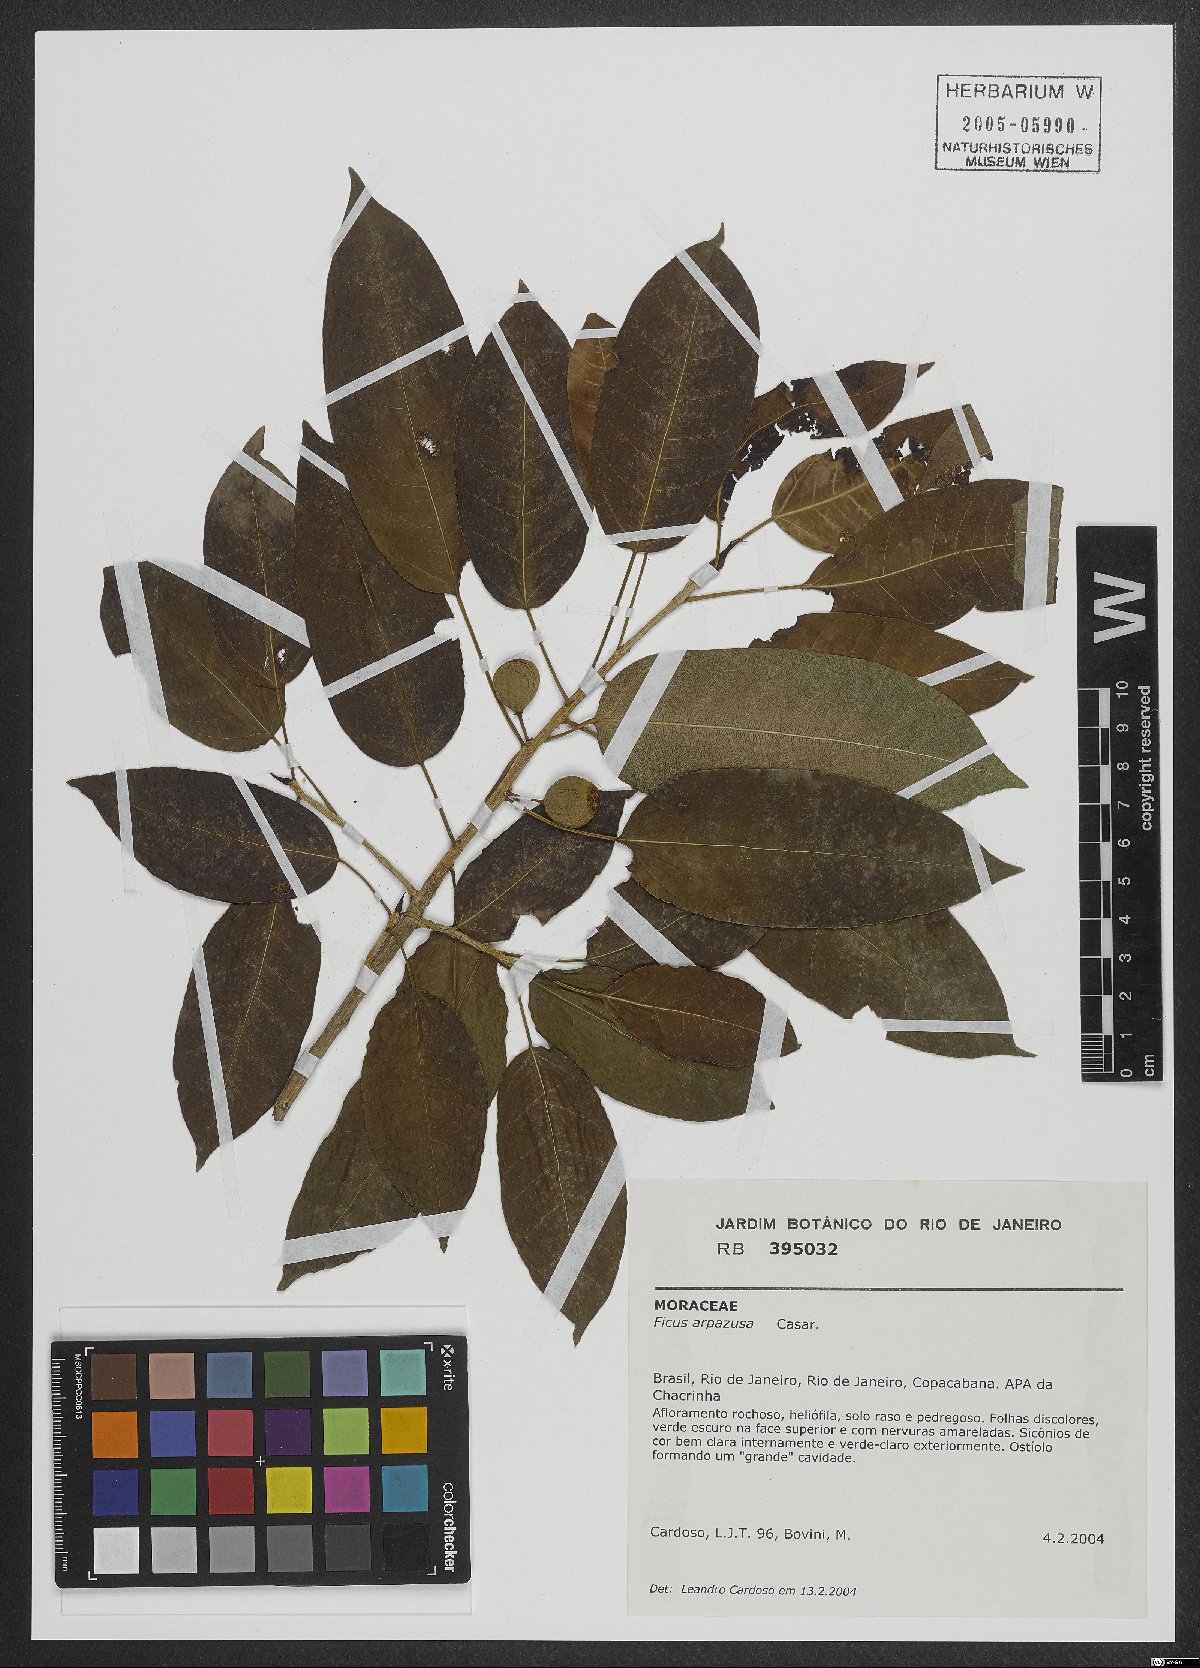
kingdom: Plantae
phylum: Tracheophyta
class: Magnoliopsida
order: Rosales
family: Moraceae
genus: Ficus
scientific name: Ficus arpazusa
